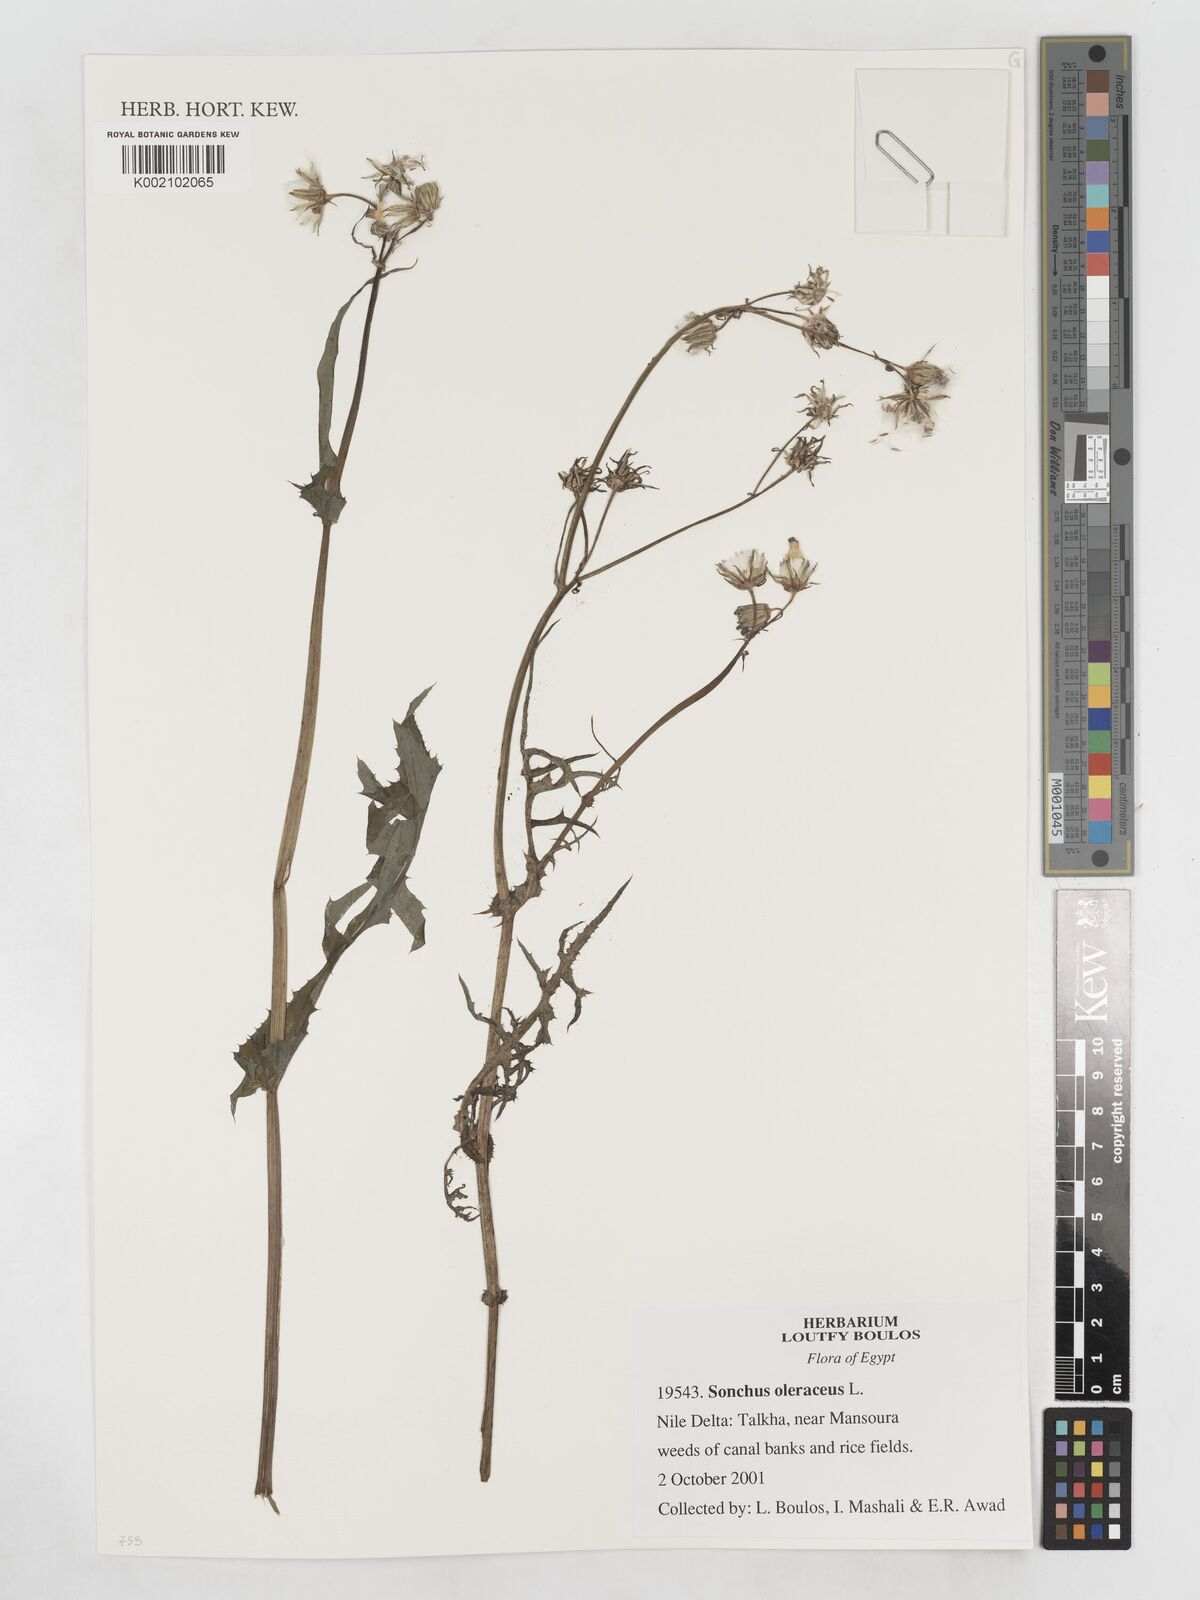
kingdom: Plantae
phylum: Tracheophyta
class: Magnoliopsida
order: Asterales
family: Asteraceae
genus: Sonchus
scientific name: Sonchus oleraceus
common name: Common sowthistle
